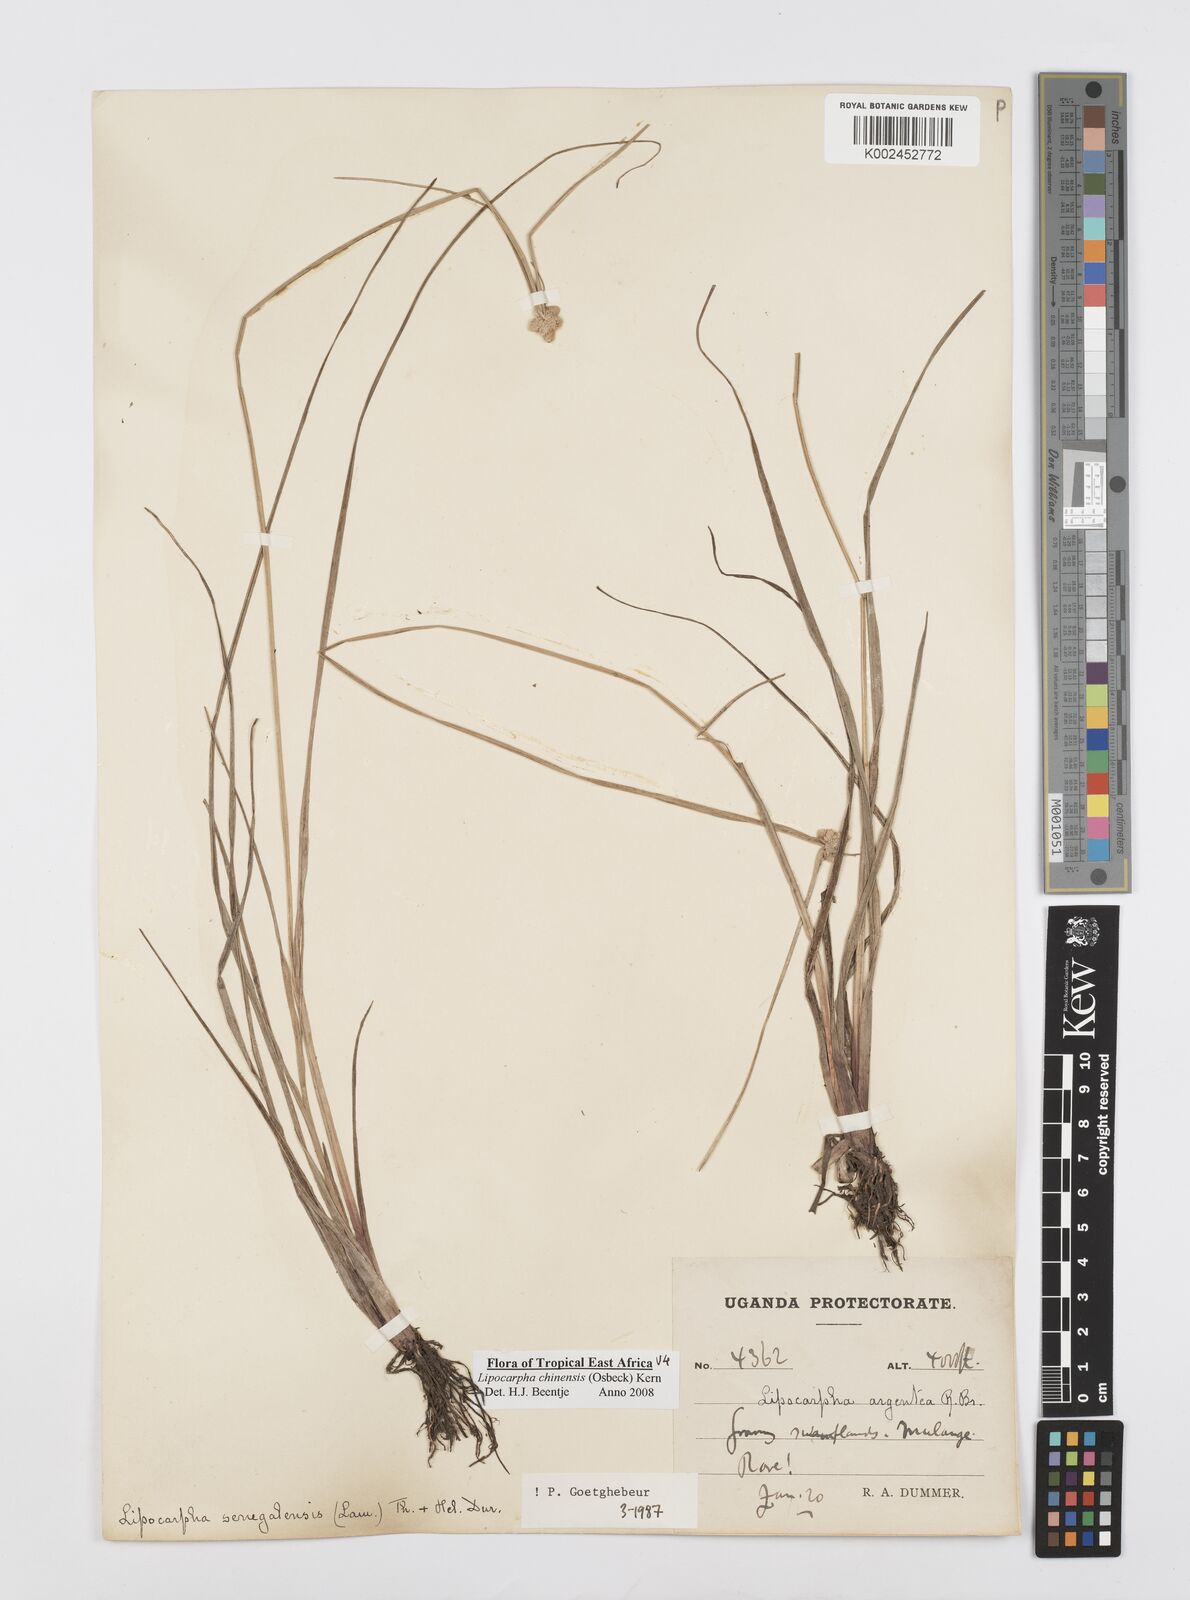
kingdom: Plantae
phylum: Tracheophyta
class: Liliopsida
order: Poales
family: Cyperaceae
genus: Cyperus
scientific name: Cyperus albescens
